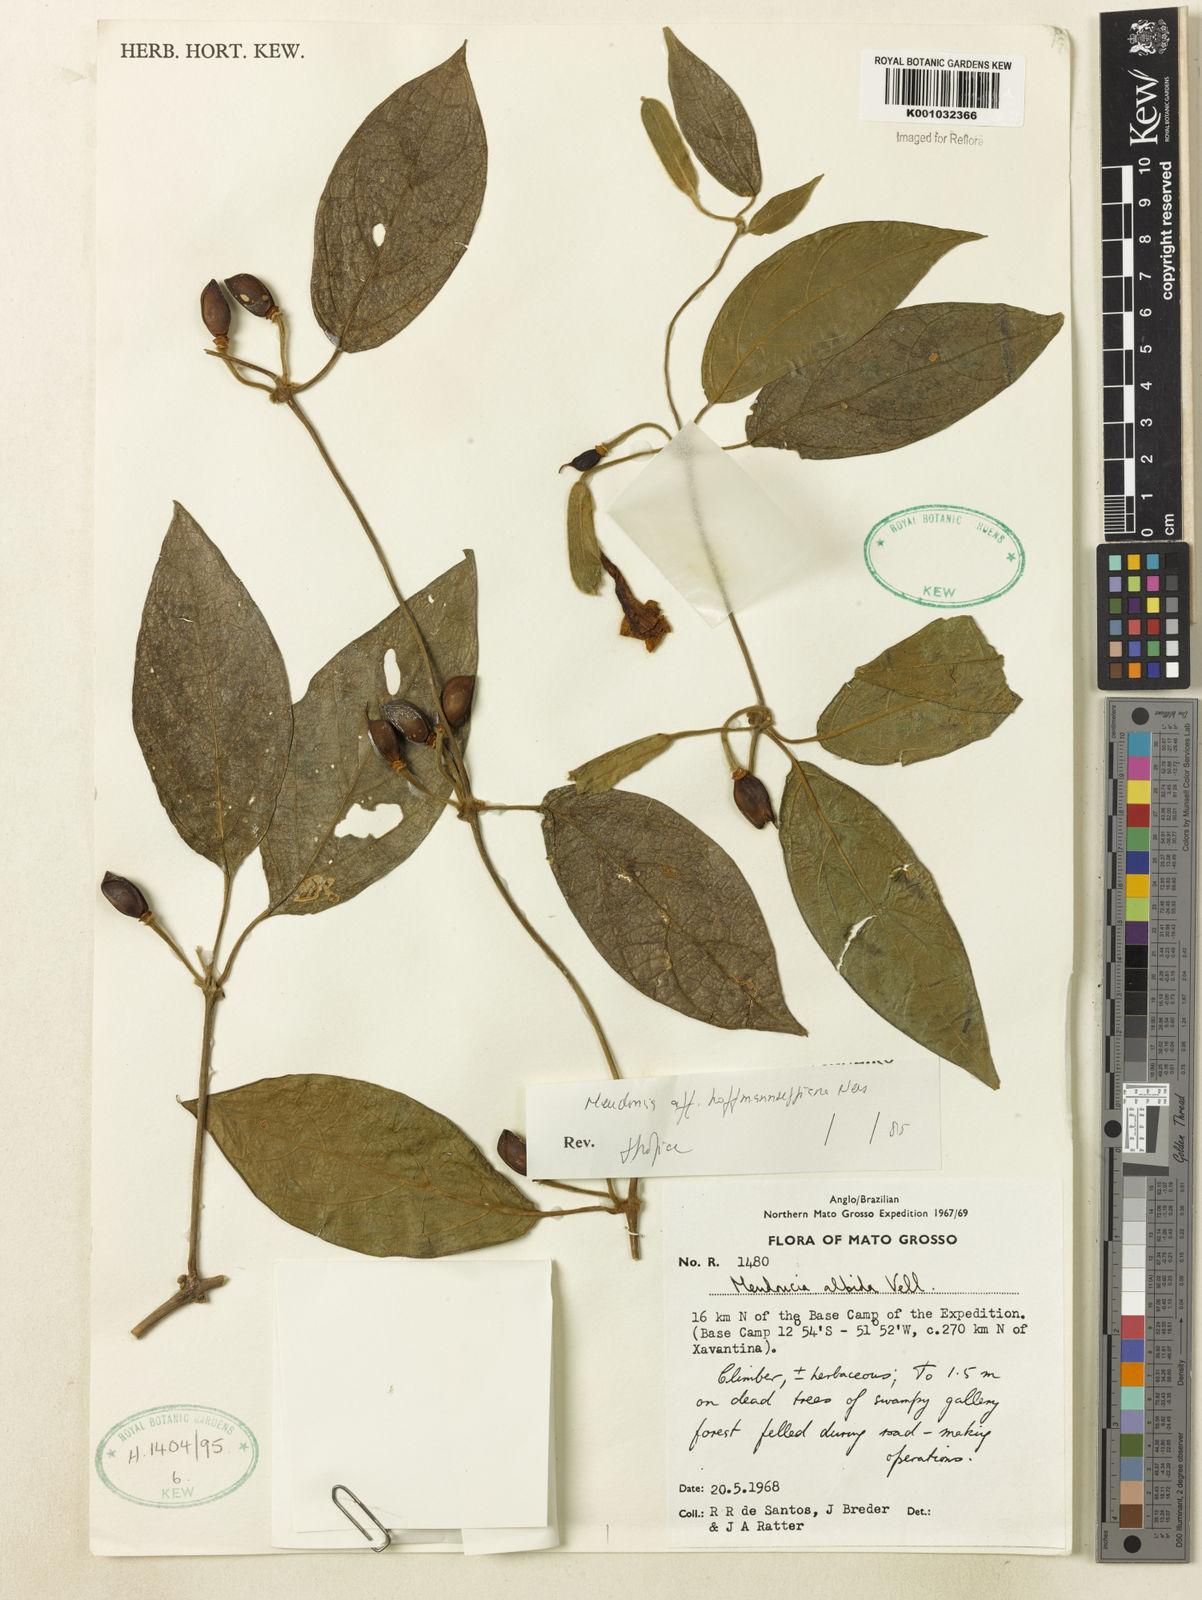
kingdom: Plantae
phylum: Tracheophyta
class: Magnoliopsida
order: Lamiales
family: Acanthaceae
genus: Mendoncia
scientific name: Mendoncia
